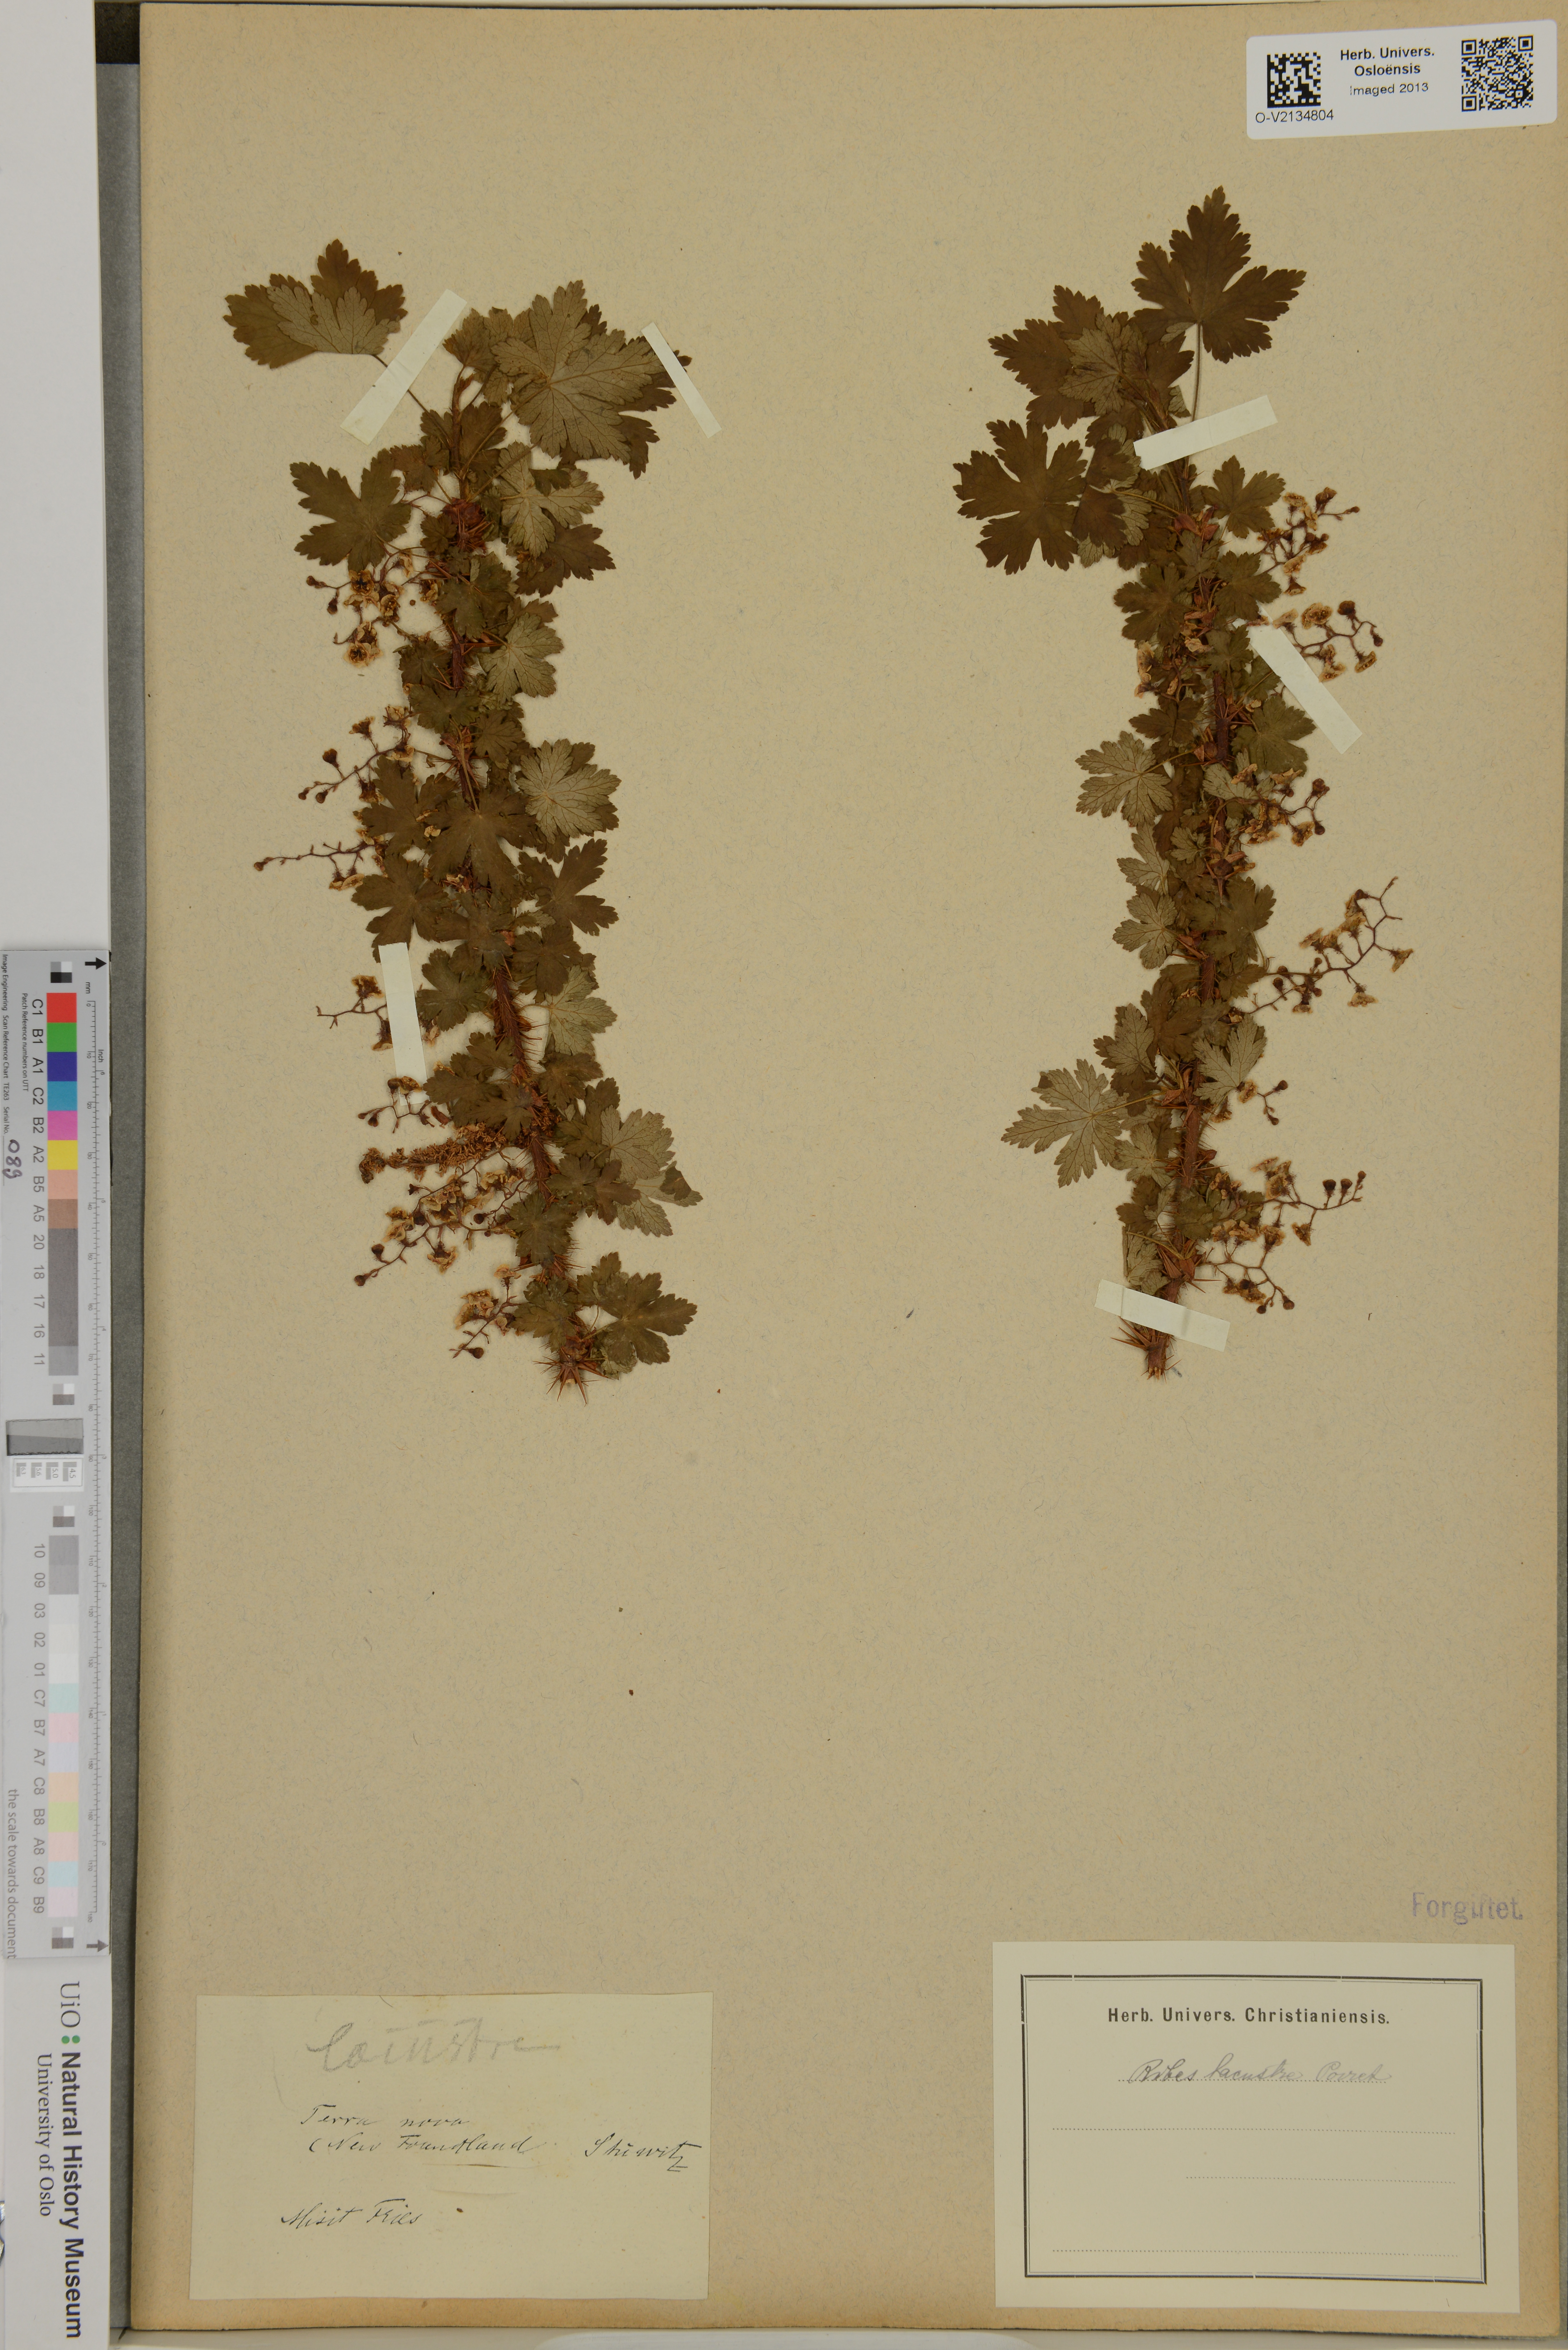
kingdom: Plantae
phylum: Tracheophyta
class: Magnoliopsida
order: Saxifragales
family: Grossulariaceae
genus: Ribes
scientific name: Ribes lacustre
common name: Black gooseberry
